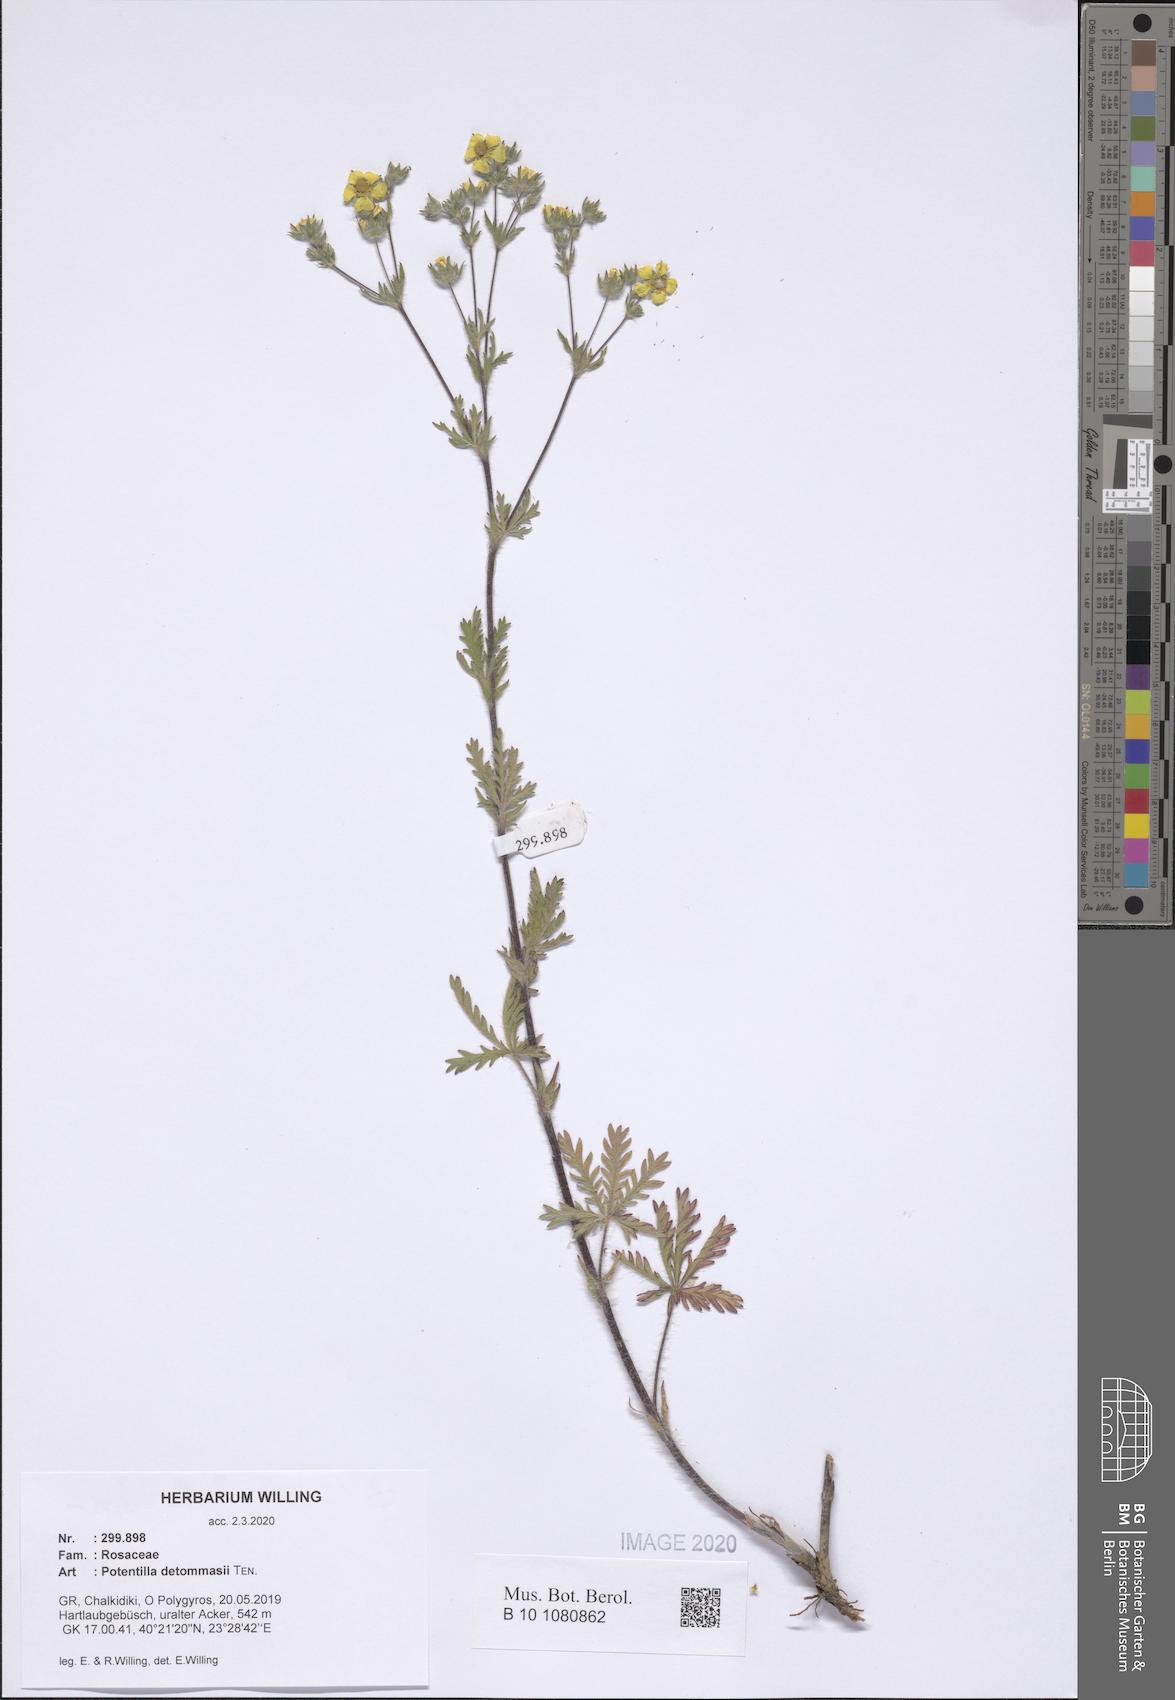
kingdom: Plantae
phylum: Tracheophyta
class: Magnoliopsida
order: Rosales
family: Rosaceae
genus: Potentilla
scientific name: Potentilla detommasii
